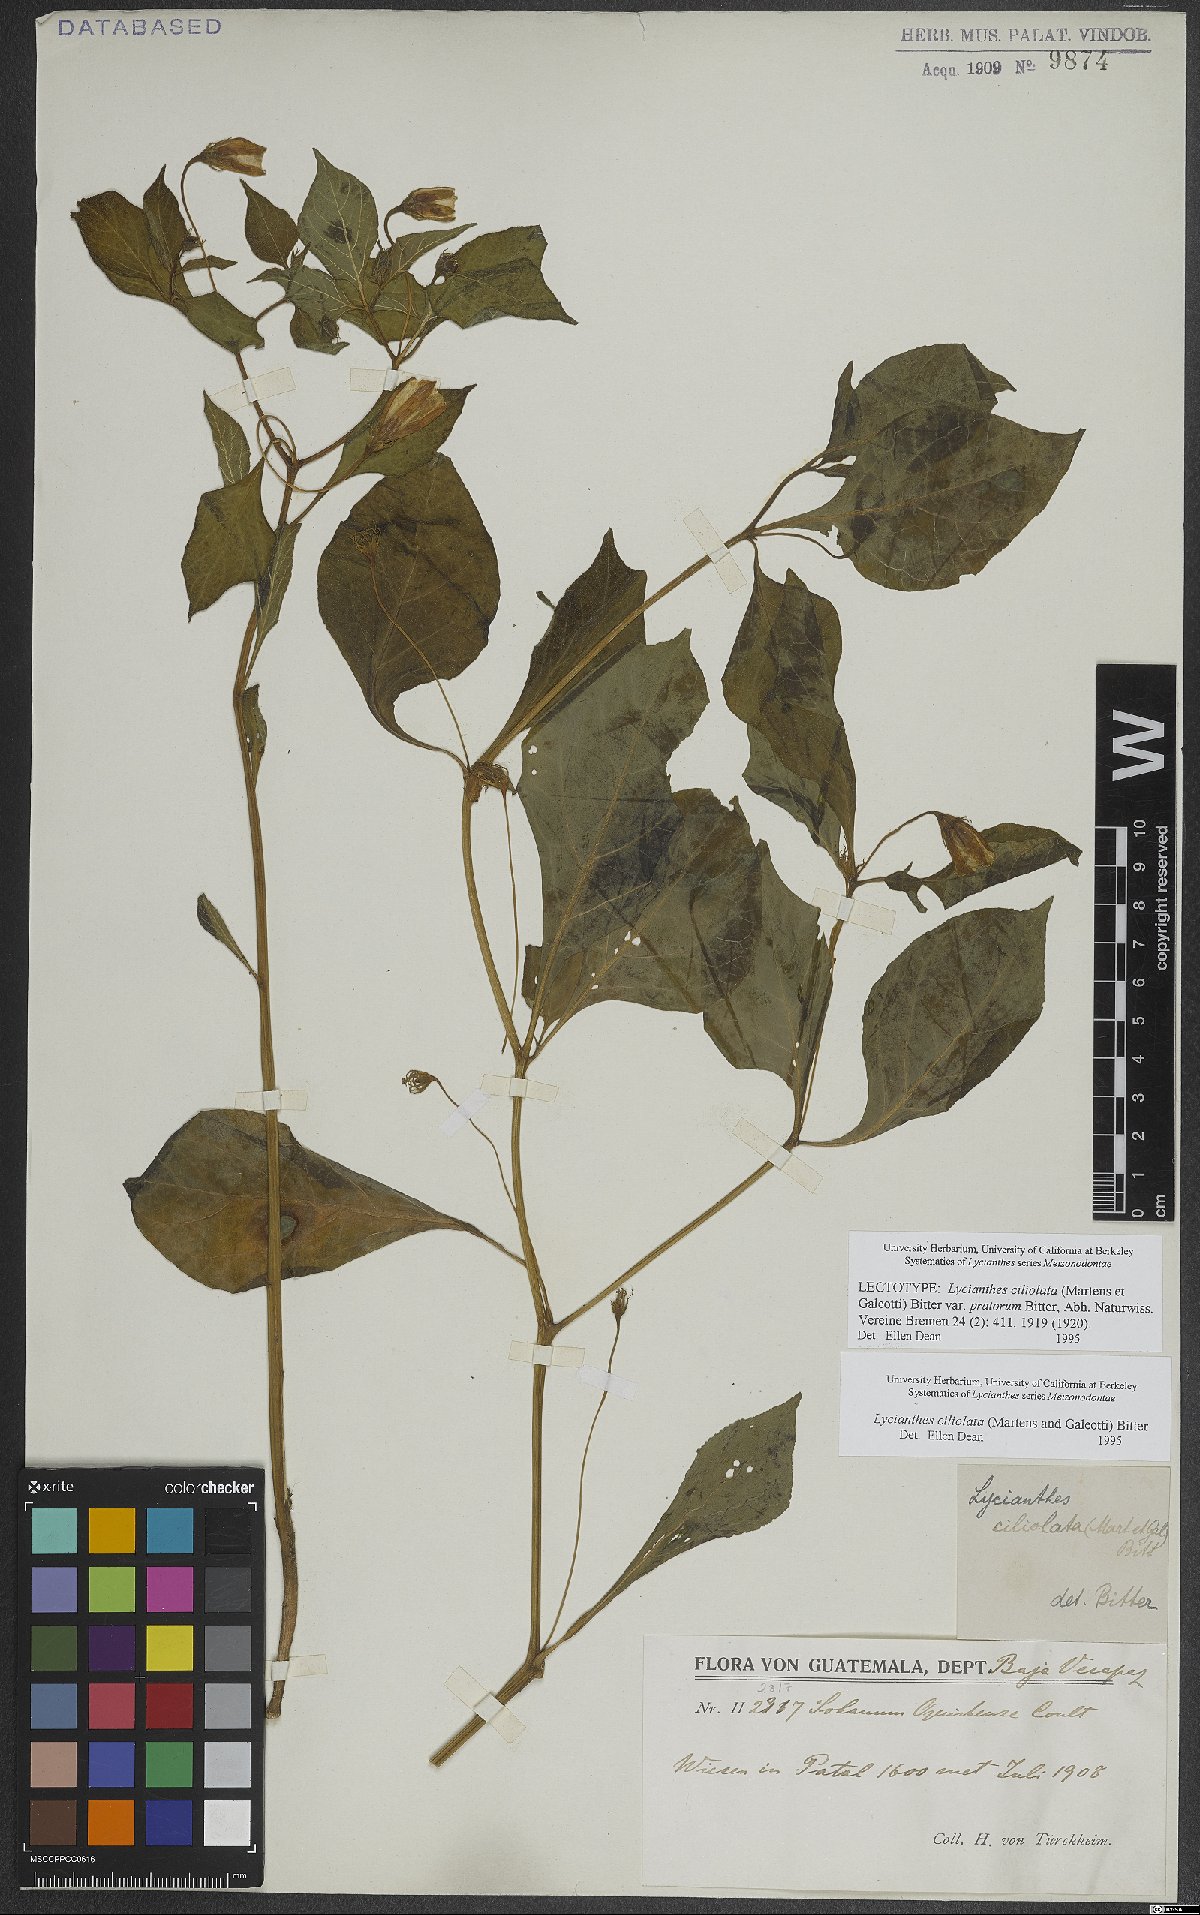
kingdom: Plantae
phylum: Tracheophyta
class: Magnoliopsida
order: Solanales
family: Solanaceae
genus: Lycianthes
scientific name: Lycianthes
